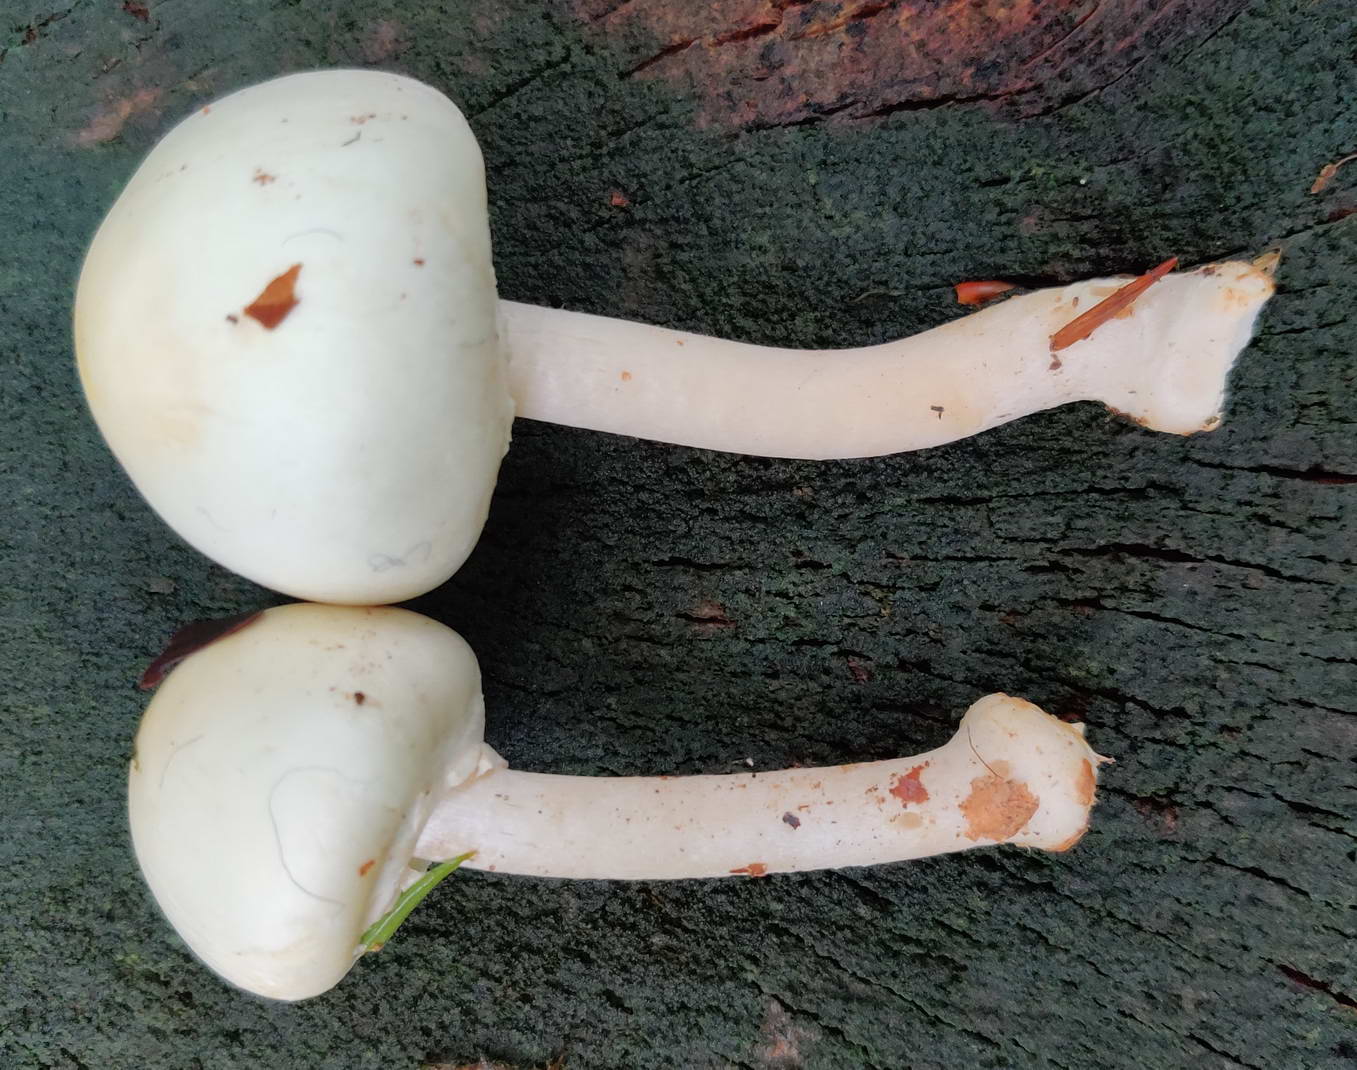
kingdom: Fungi
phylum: Basidiomycota
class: Agaricomycetes
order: Agaricales
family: Agaricaceae
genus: Agaricus
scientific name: Agaricus sylvicola
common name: skiveknoldet champignon
